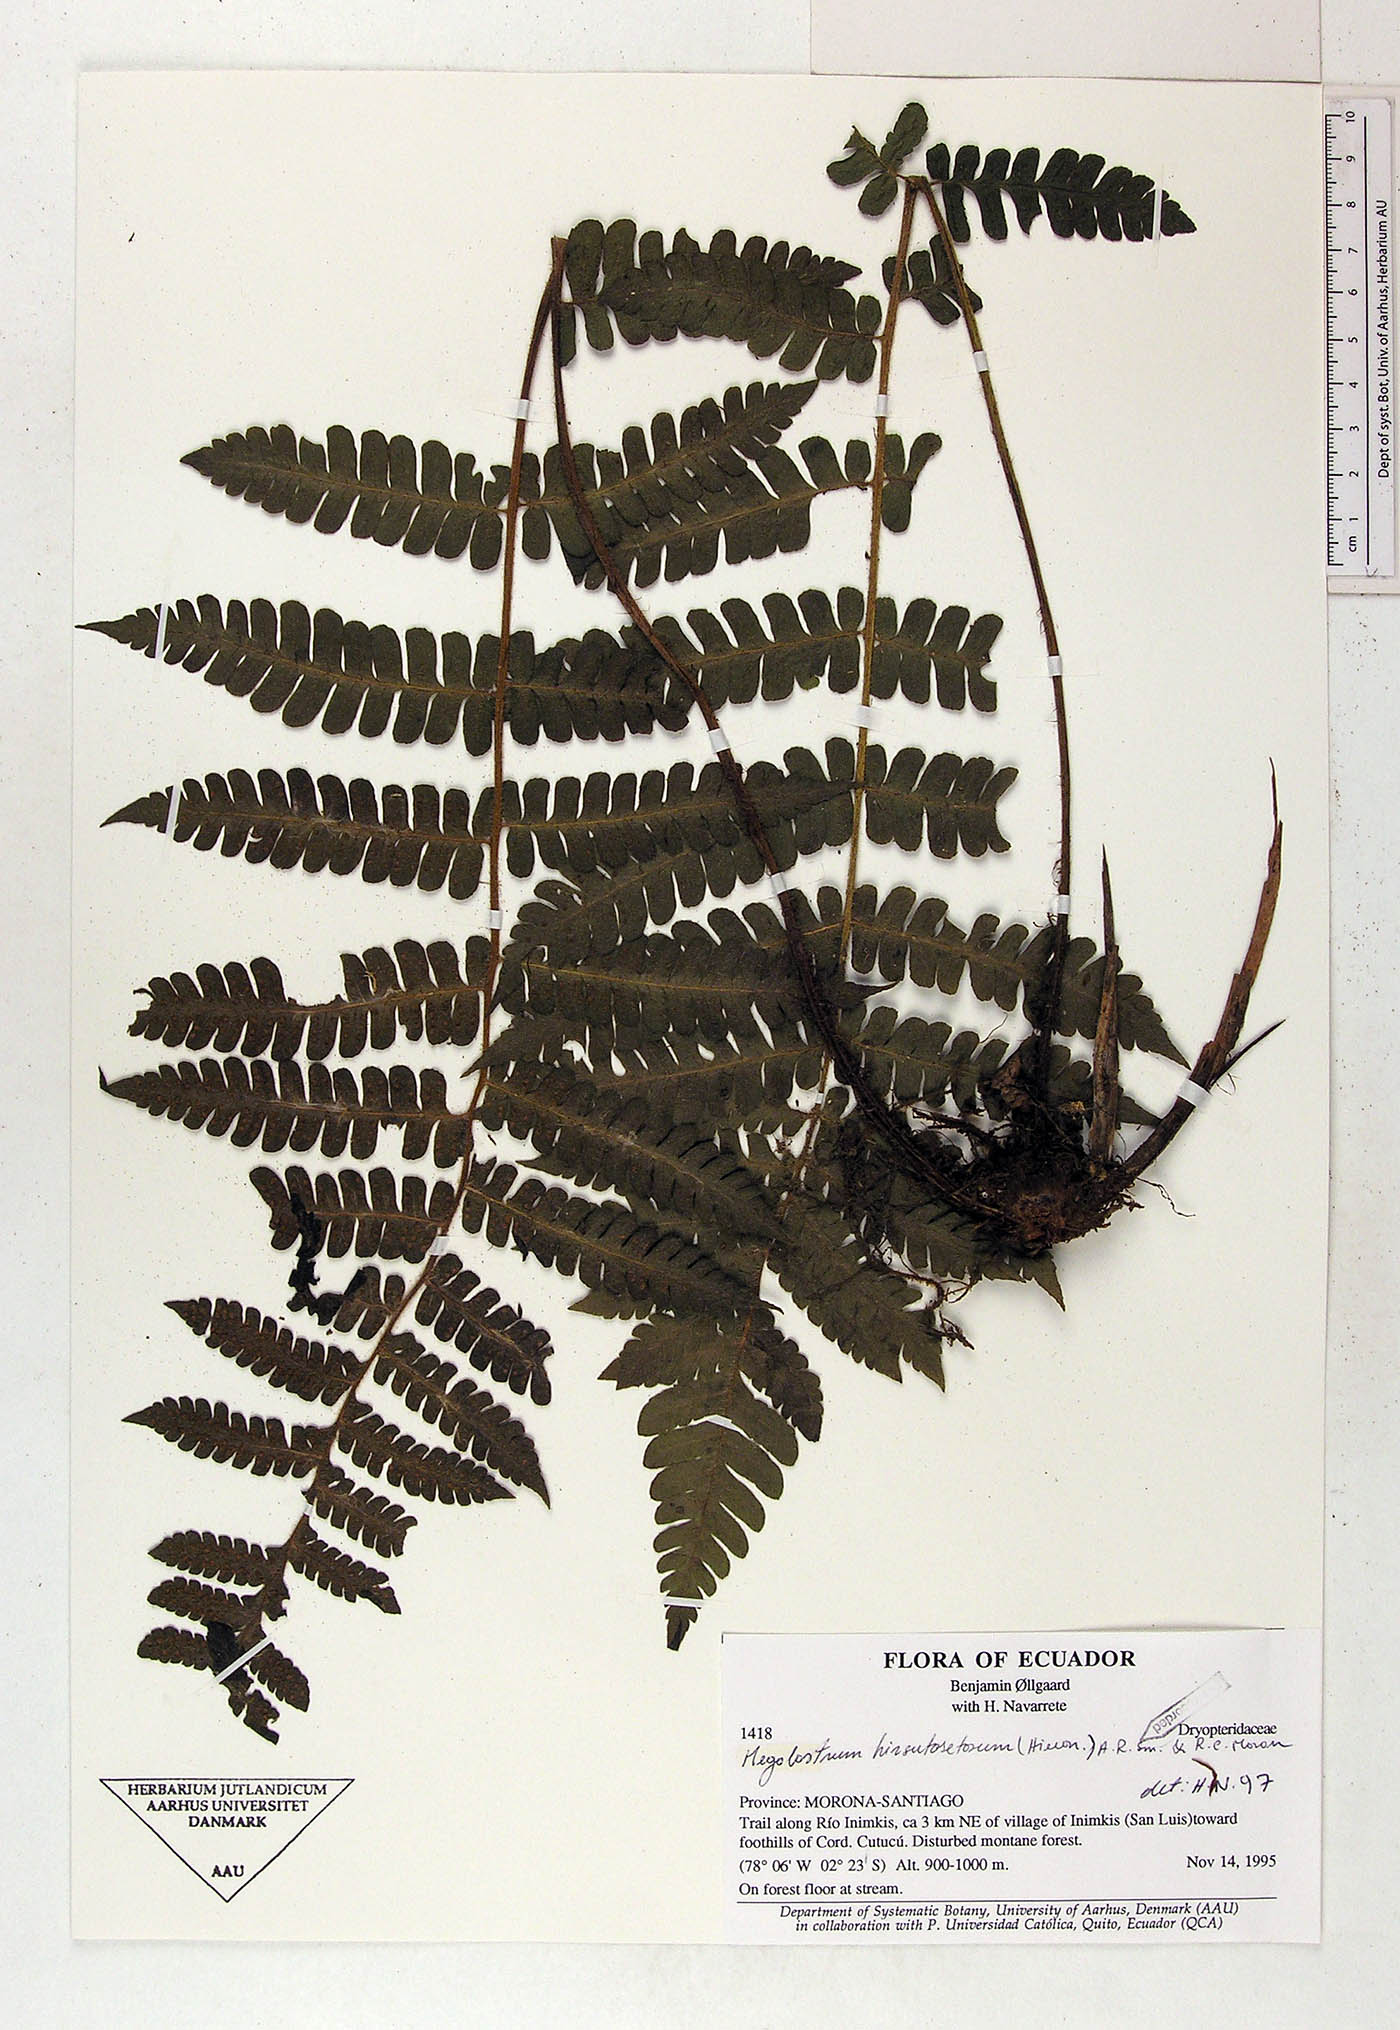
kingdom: Plantae
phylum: Tracheophyta
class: Polypodiopsida
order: Polypodiales
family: Dryopteridaceae
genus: Megalastrum
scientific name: Megalastrum hirsutosetosum
